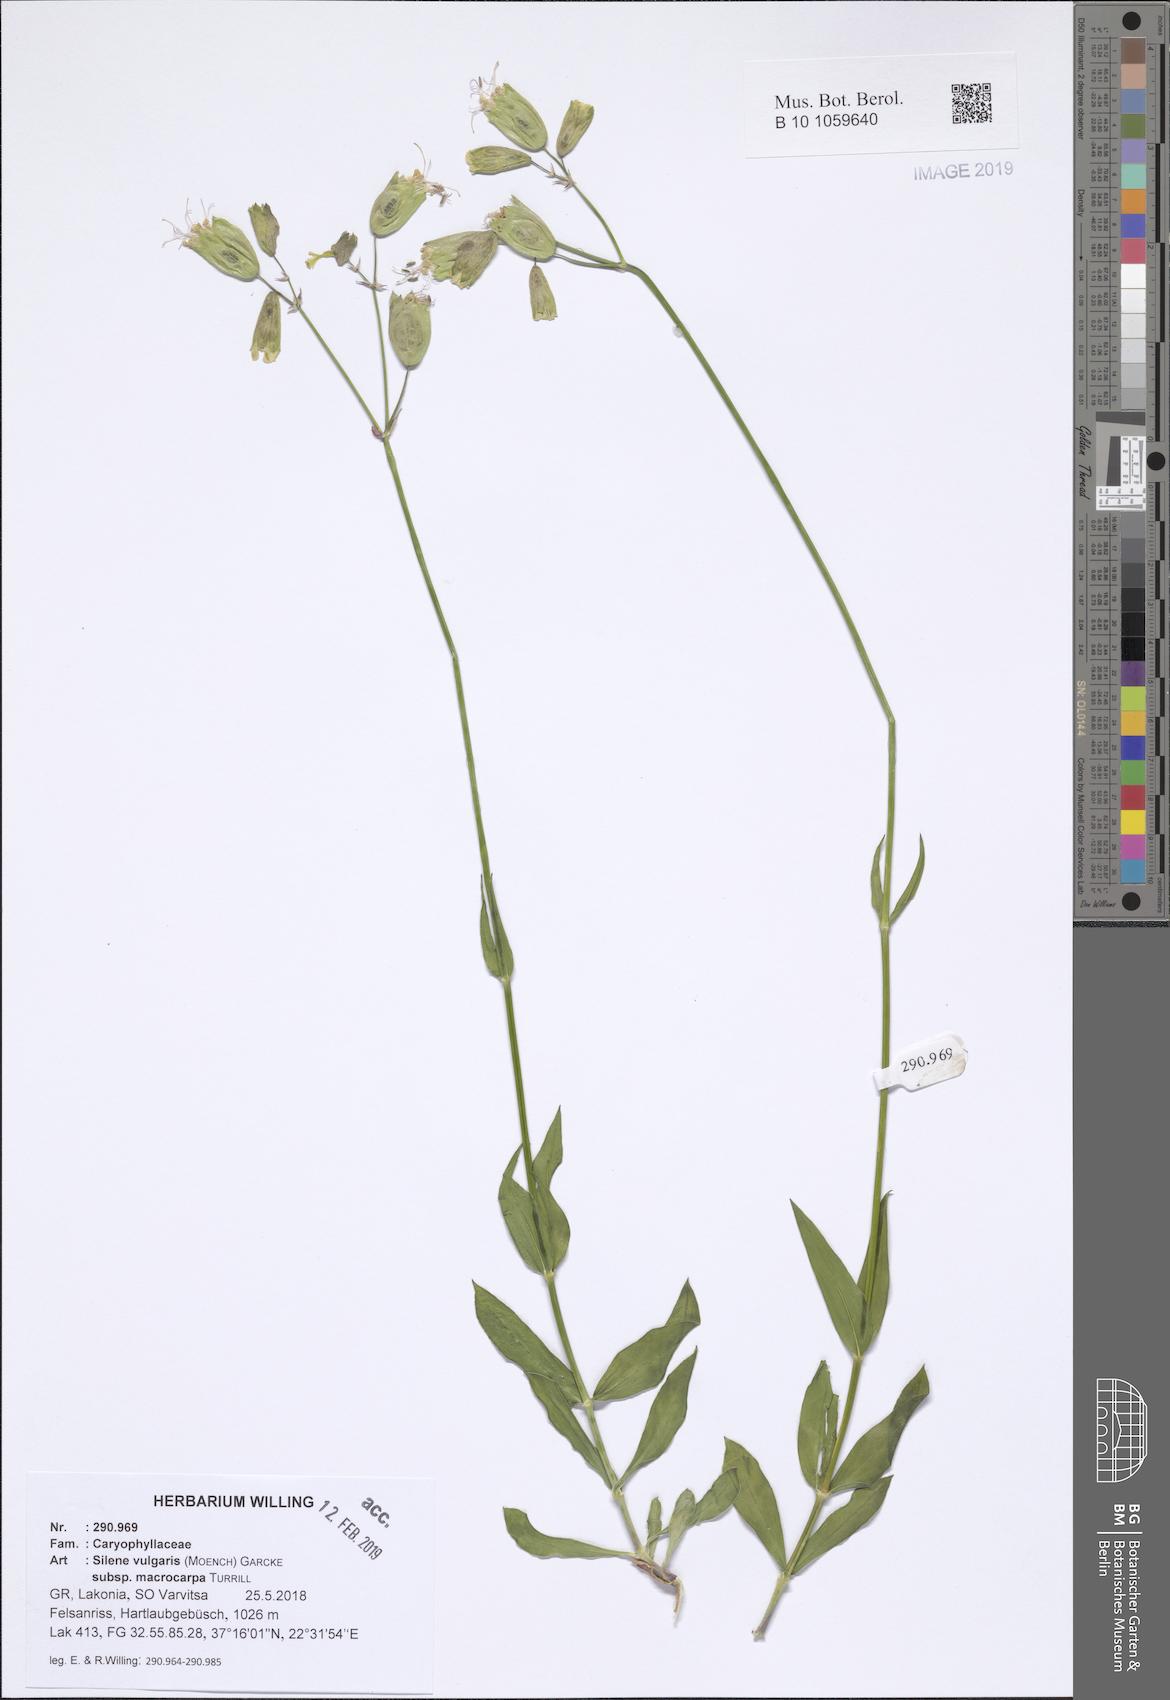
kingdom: Plantae
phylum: Tracheophyta
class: Magnoliopsida
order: Caryophyllales
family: Caryophyllaceae
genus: Silene
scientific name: Silene vulgaris
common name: Bladder campion
